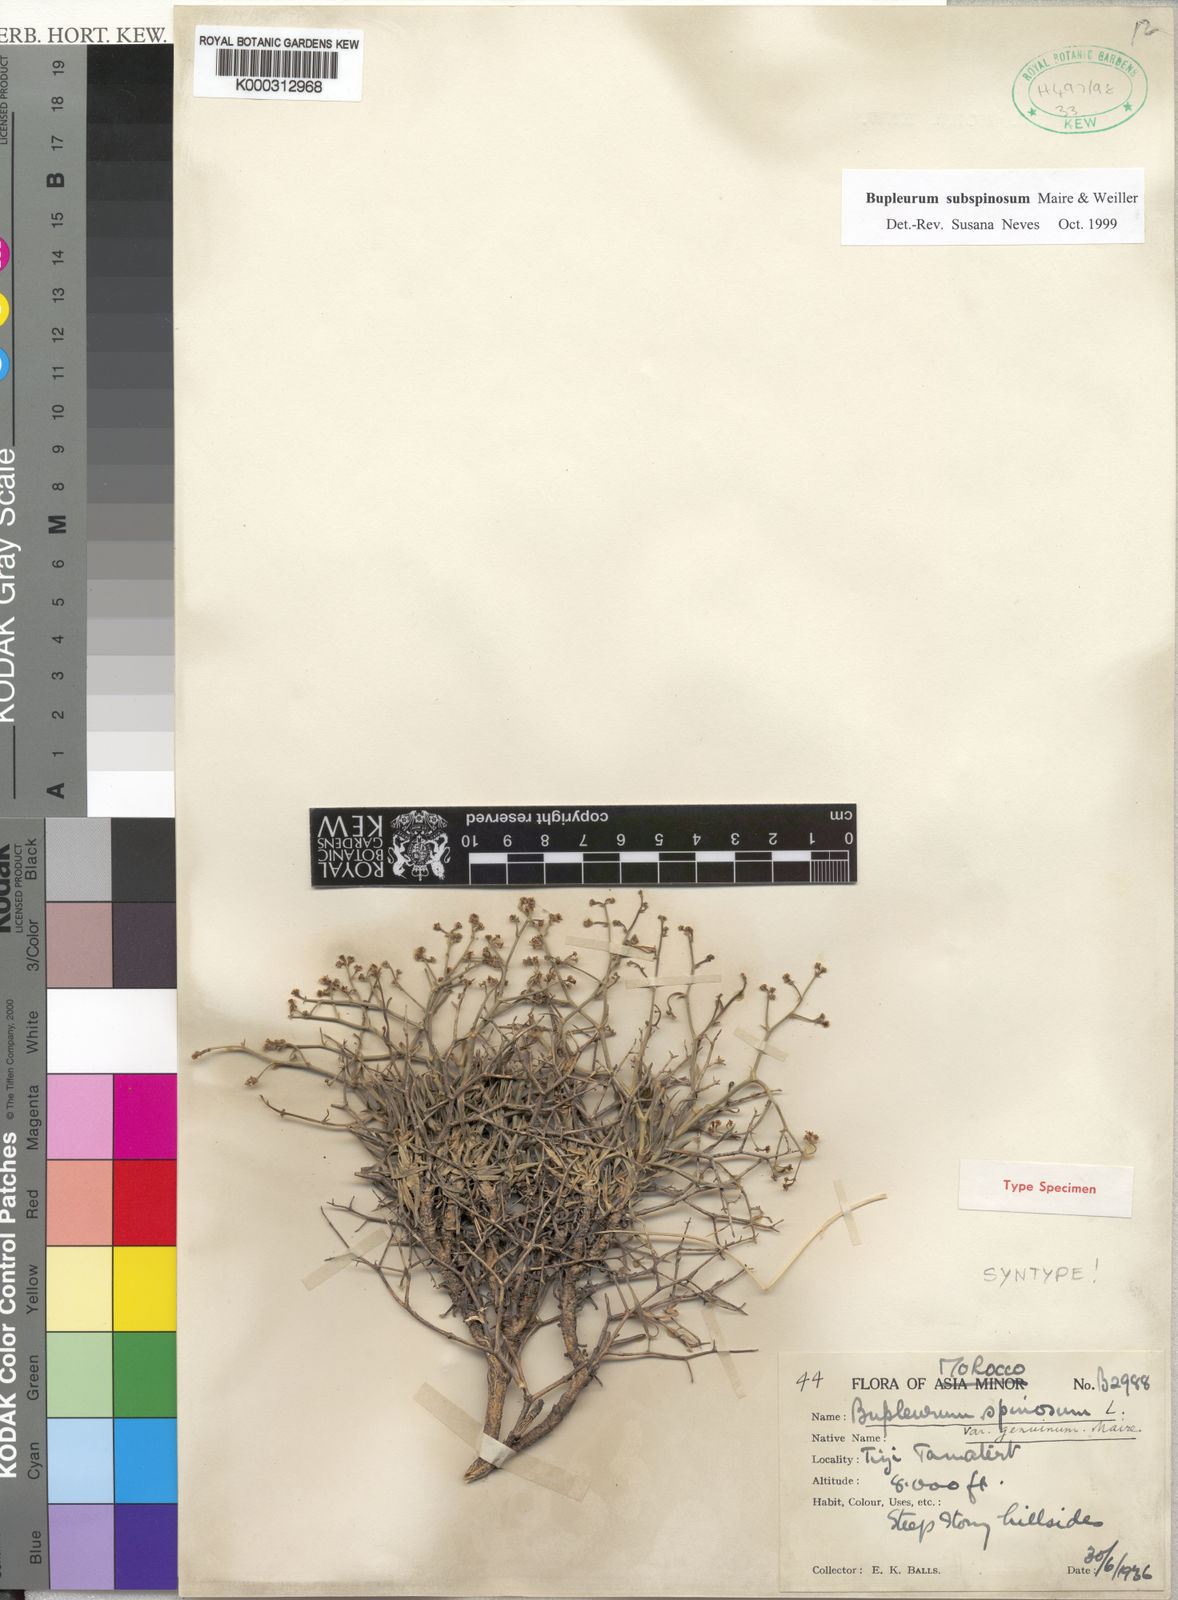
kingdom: Plantae
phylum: Tracheophyta
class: Magnoliopsida
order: Apiales
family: Apiaceae
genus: Bupleurum
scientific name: Bupleurum subspinosum
